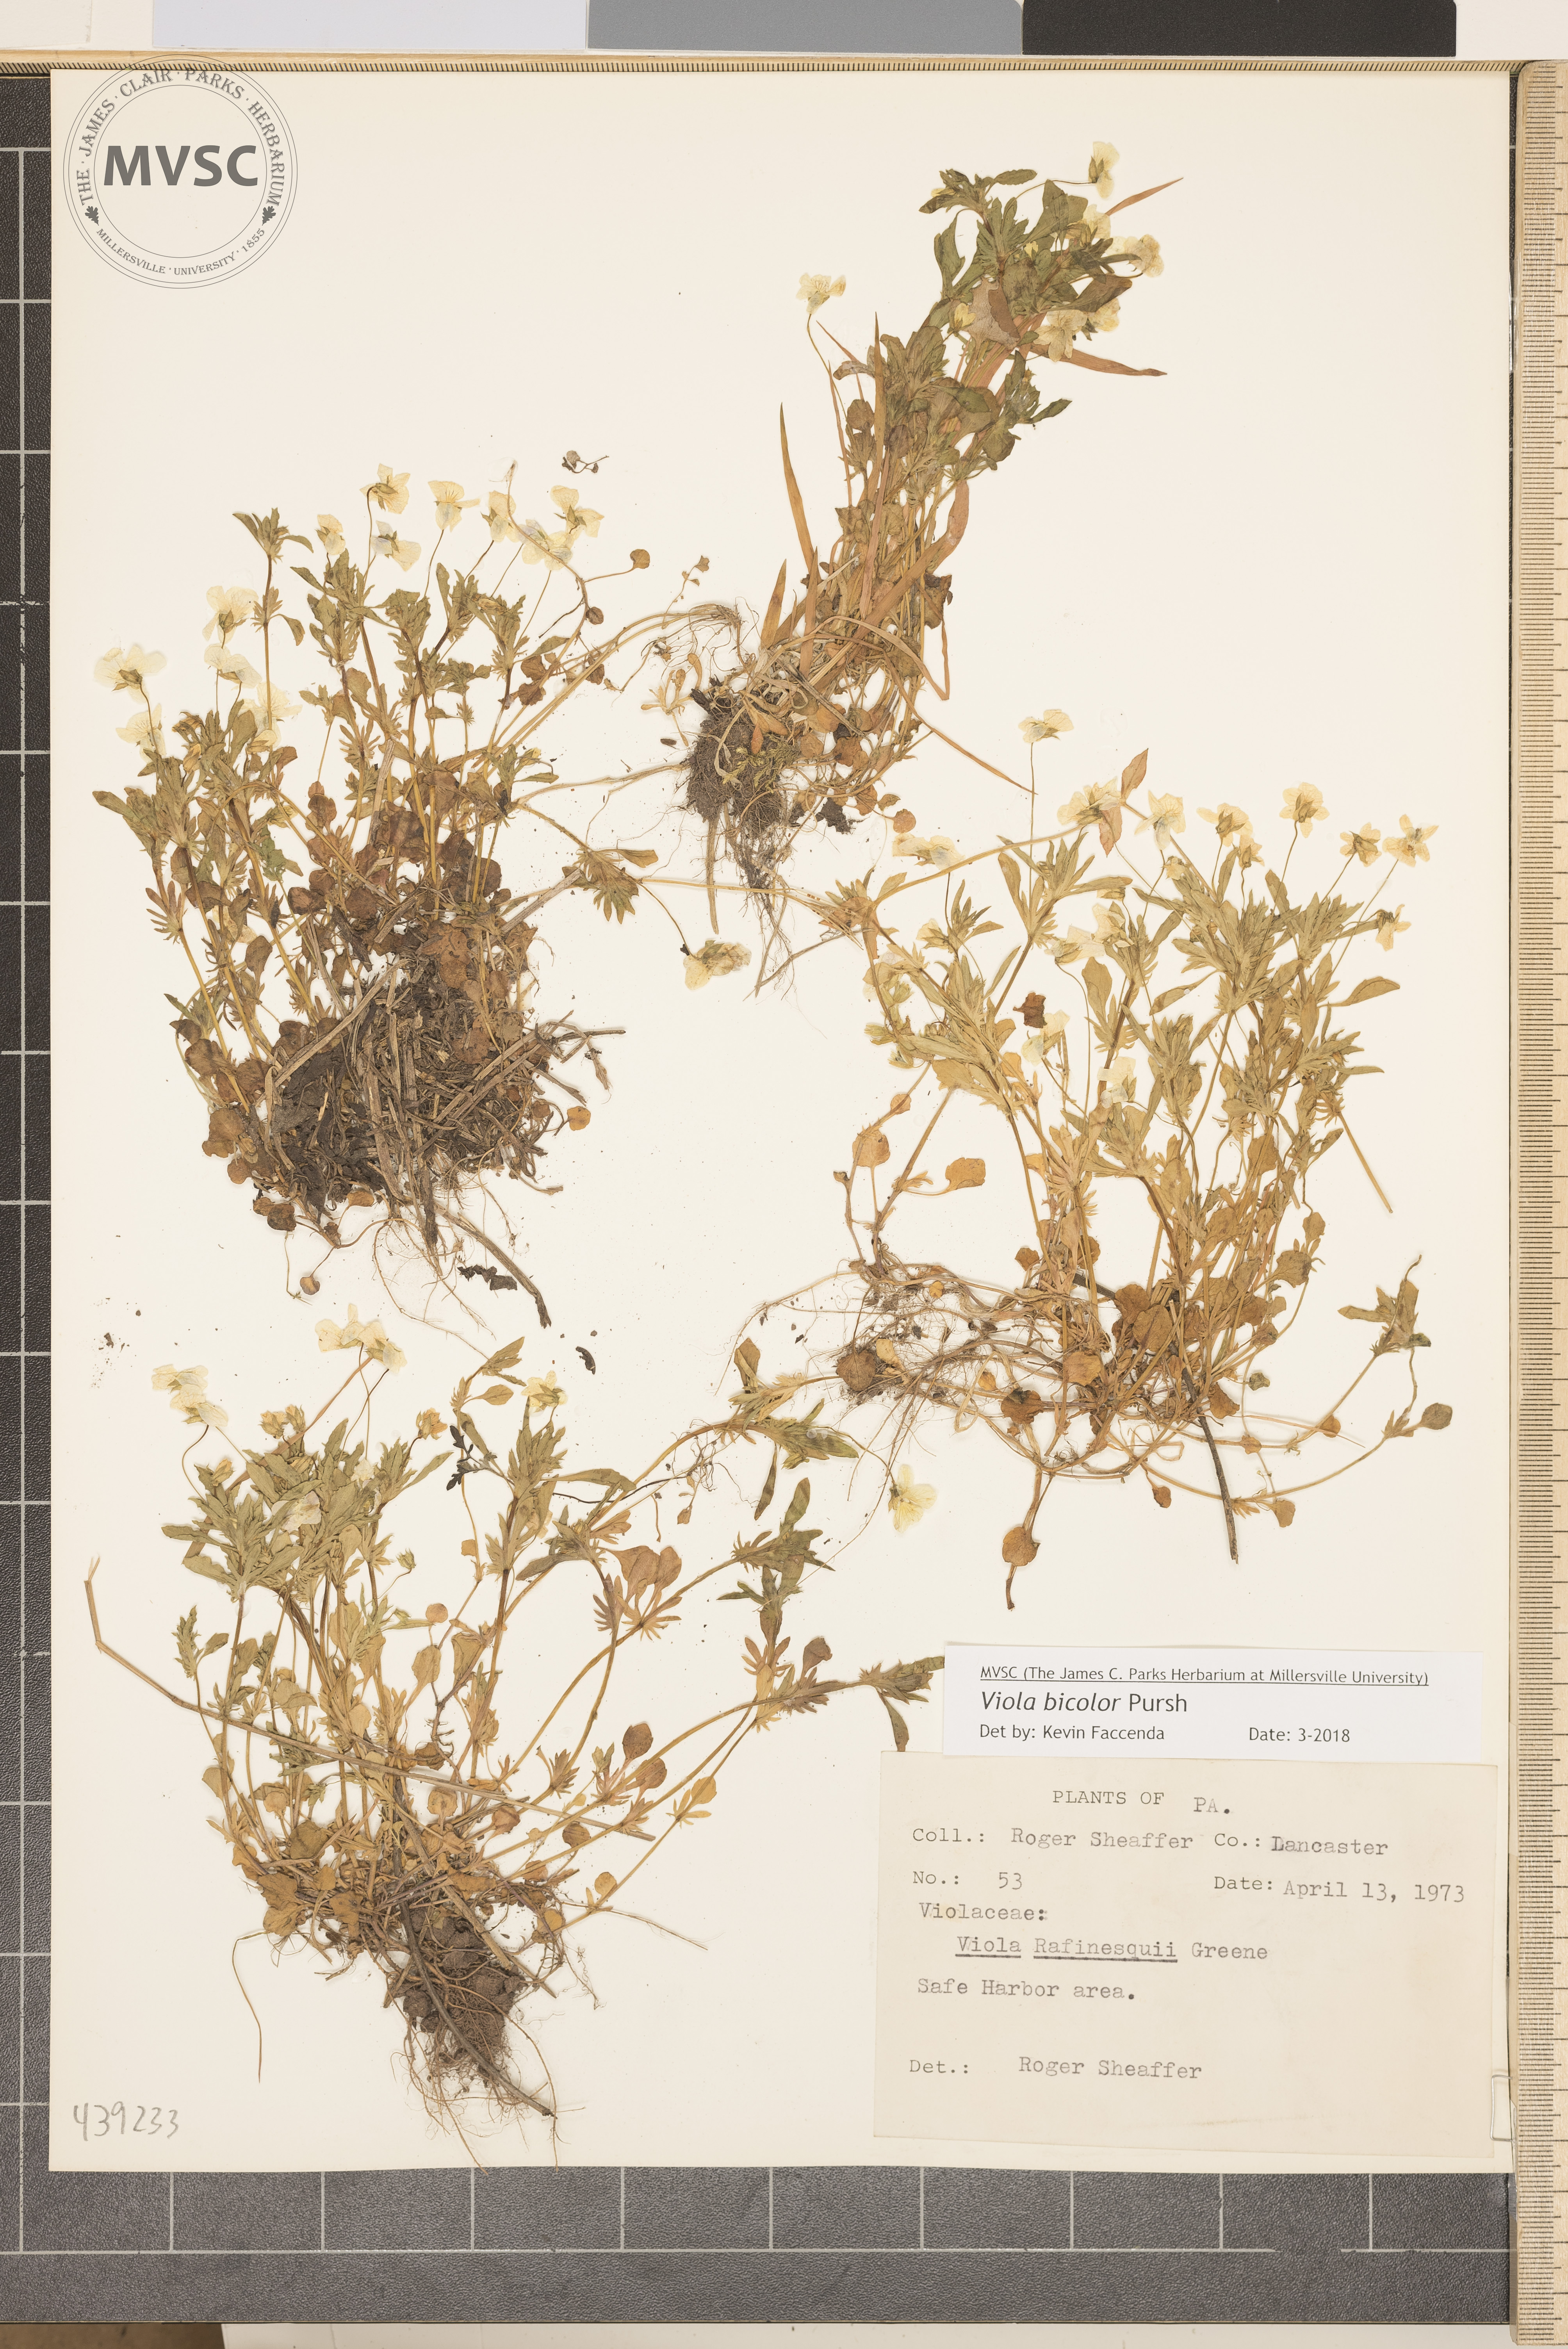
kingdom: Plantae
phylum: Tracheophyta
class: Magnoliopsida
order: Malpighiales
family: Violaceae
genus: Viola
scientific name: Viola rafinesquei
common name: American field pansy
